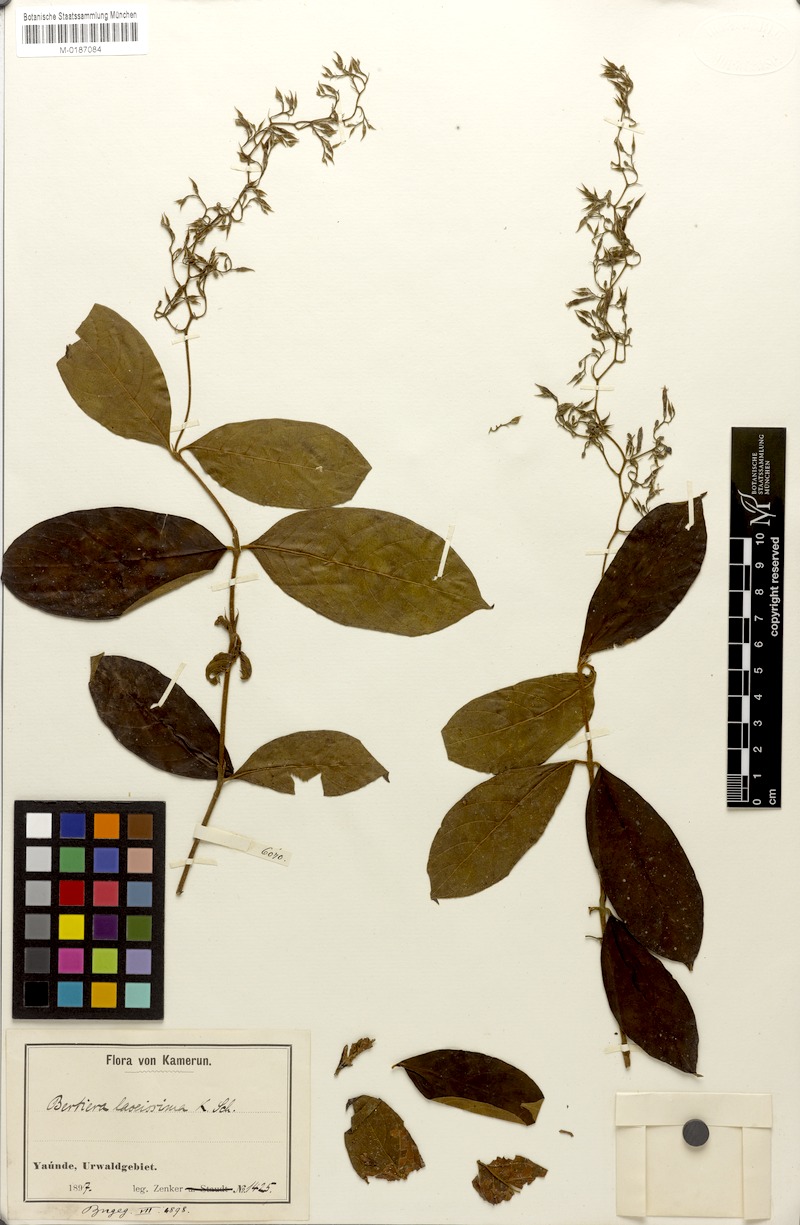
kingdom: Plantae
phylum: Tracheophyta
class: Magnoliopsida
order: Gentianales
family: Rubiaceae
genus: Bertiera
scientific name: Bertiera laxissima
